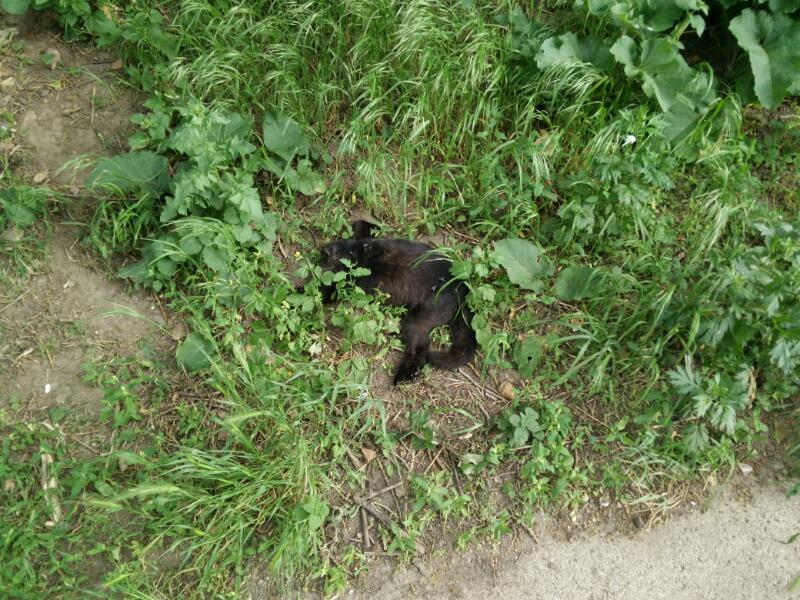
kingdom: Animalia
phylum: Chordata
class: Mammalia
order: Carnivora
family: Felidae
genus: Felis
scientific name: Felis catus
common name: Domestic cat
